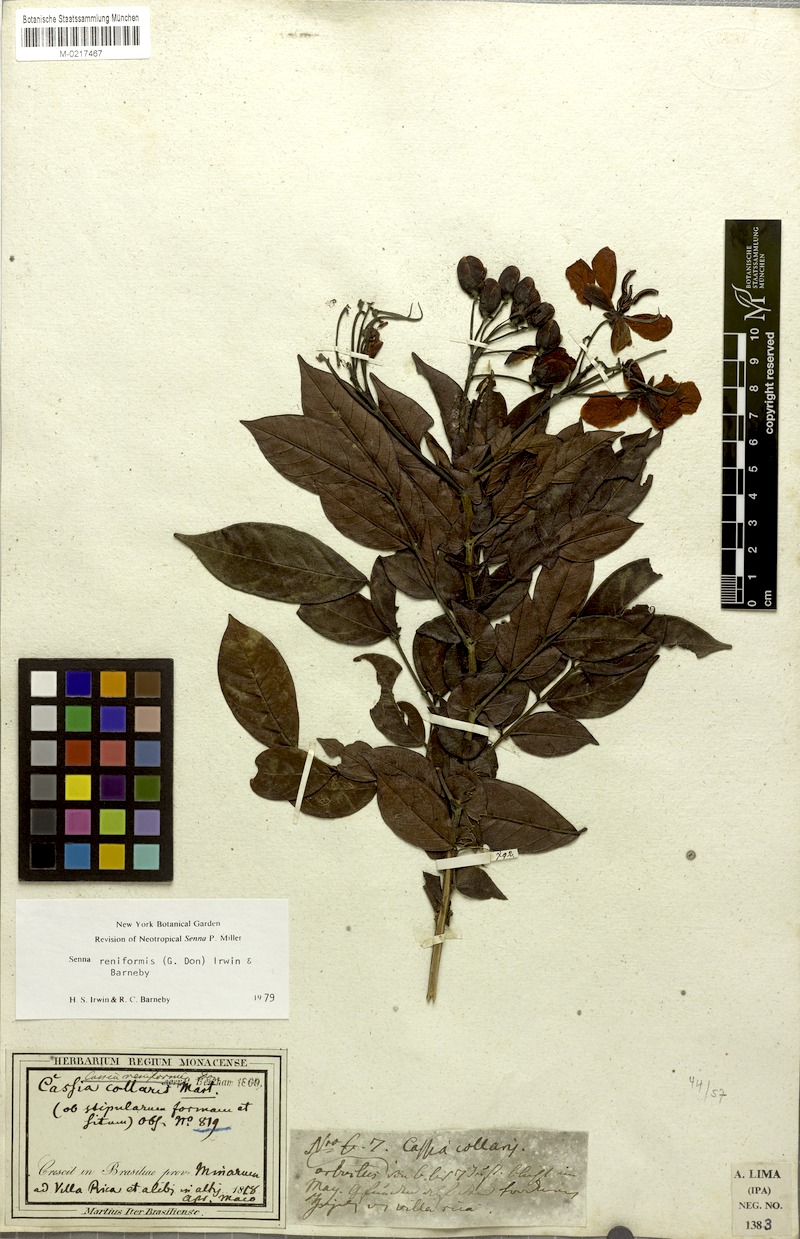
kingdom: Plantae
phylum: Tracheophyta
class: Magnoliopsida
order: Fabales
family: Fabaceae
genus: Senna
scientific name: Senna reniformis
